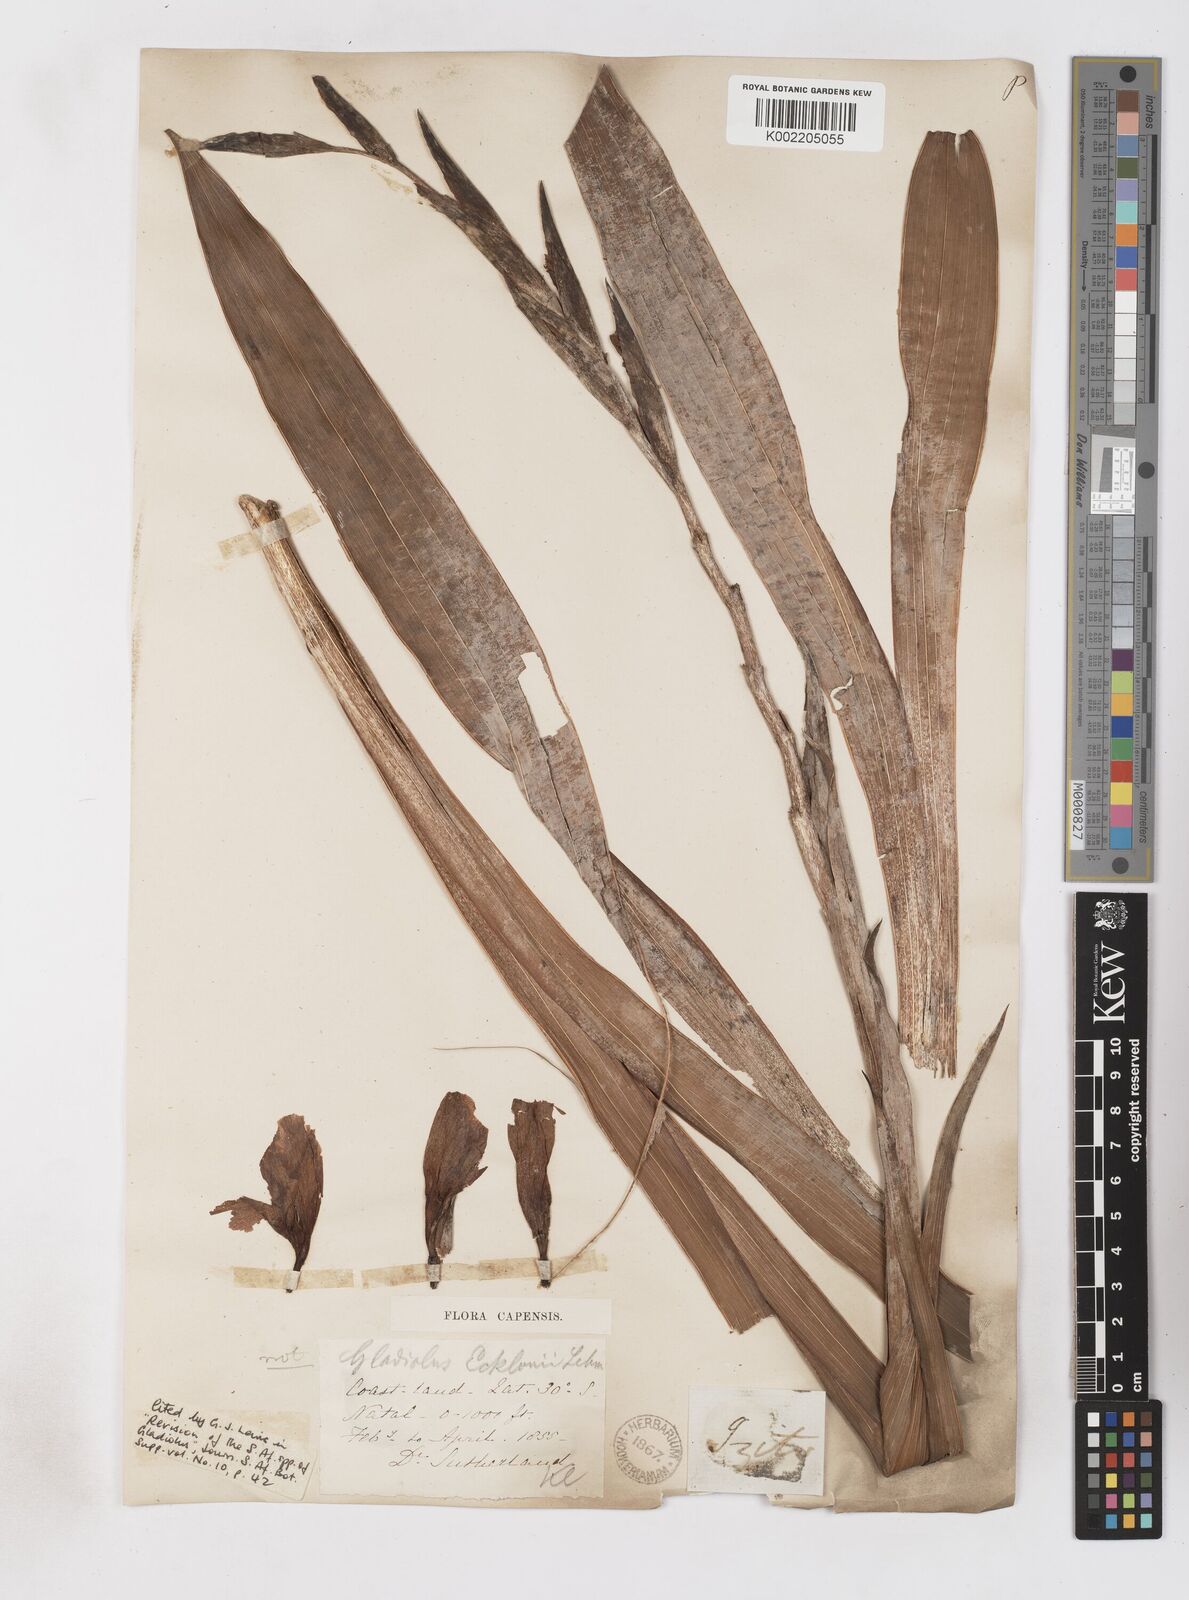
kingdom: Plantae
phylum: Tracheophyta
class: Liliopsida
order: Asparagales
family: Iridaceae
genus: Gladiolus
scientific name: Gladiolus ecklonii
